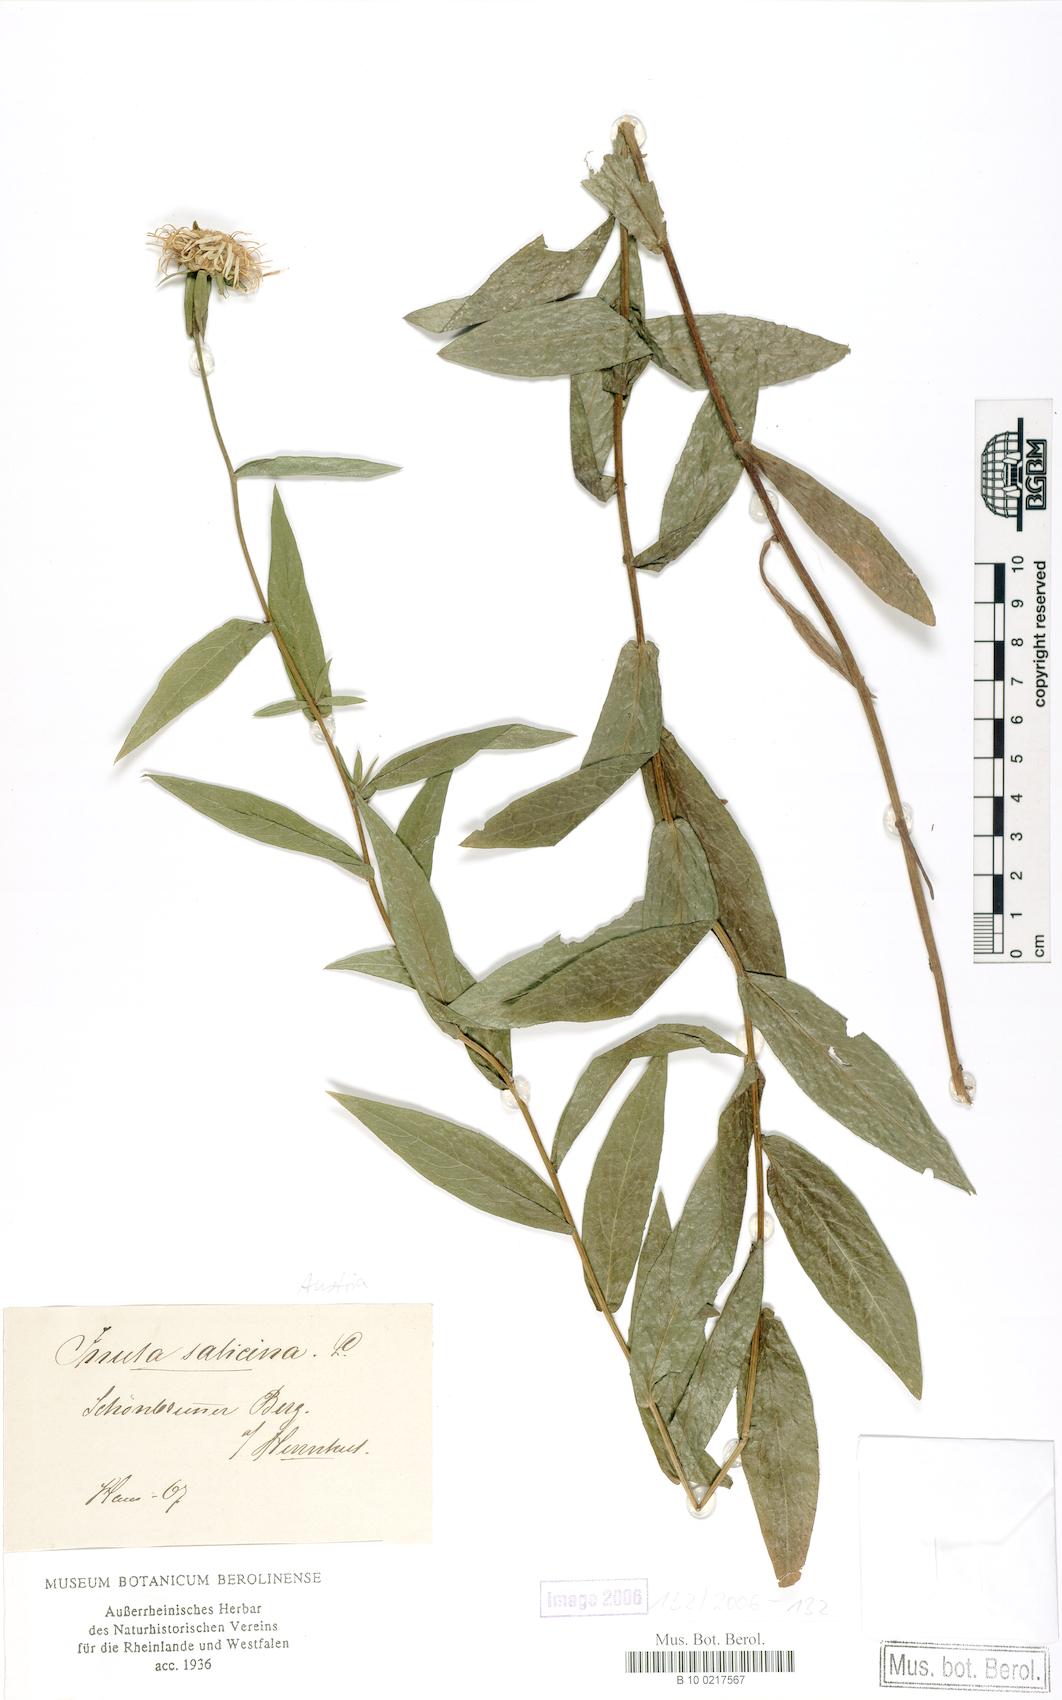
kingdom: Plantae
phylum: Tracheophyta
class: Magnoliopsida
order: Asterales
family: Asteraceae
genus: Pentanema
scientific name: Pentanema salicinum
